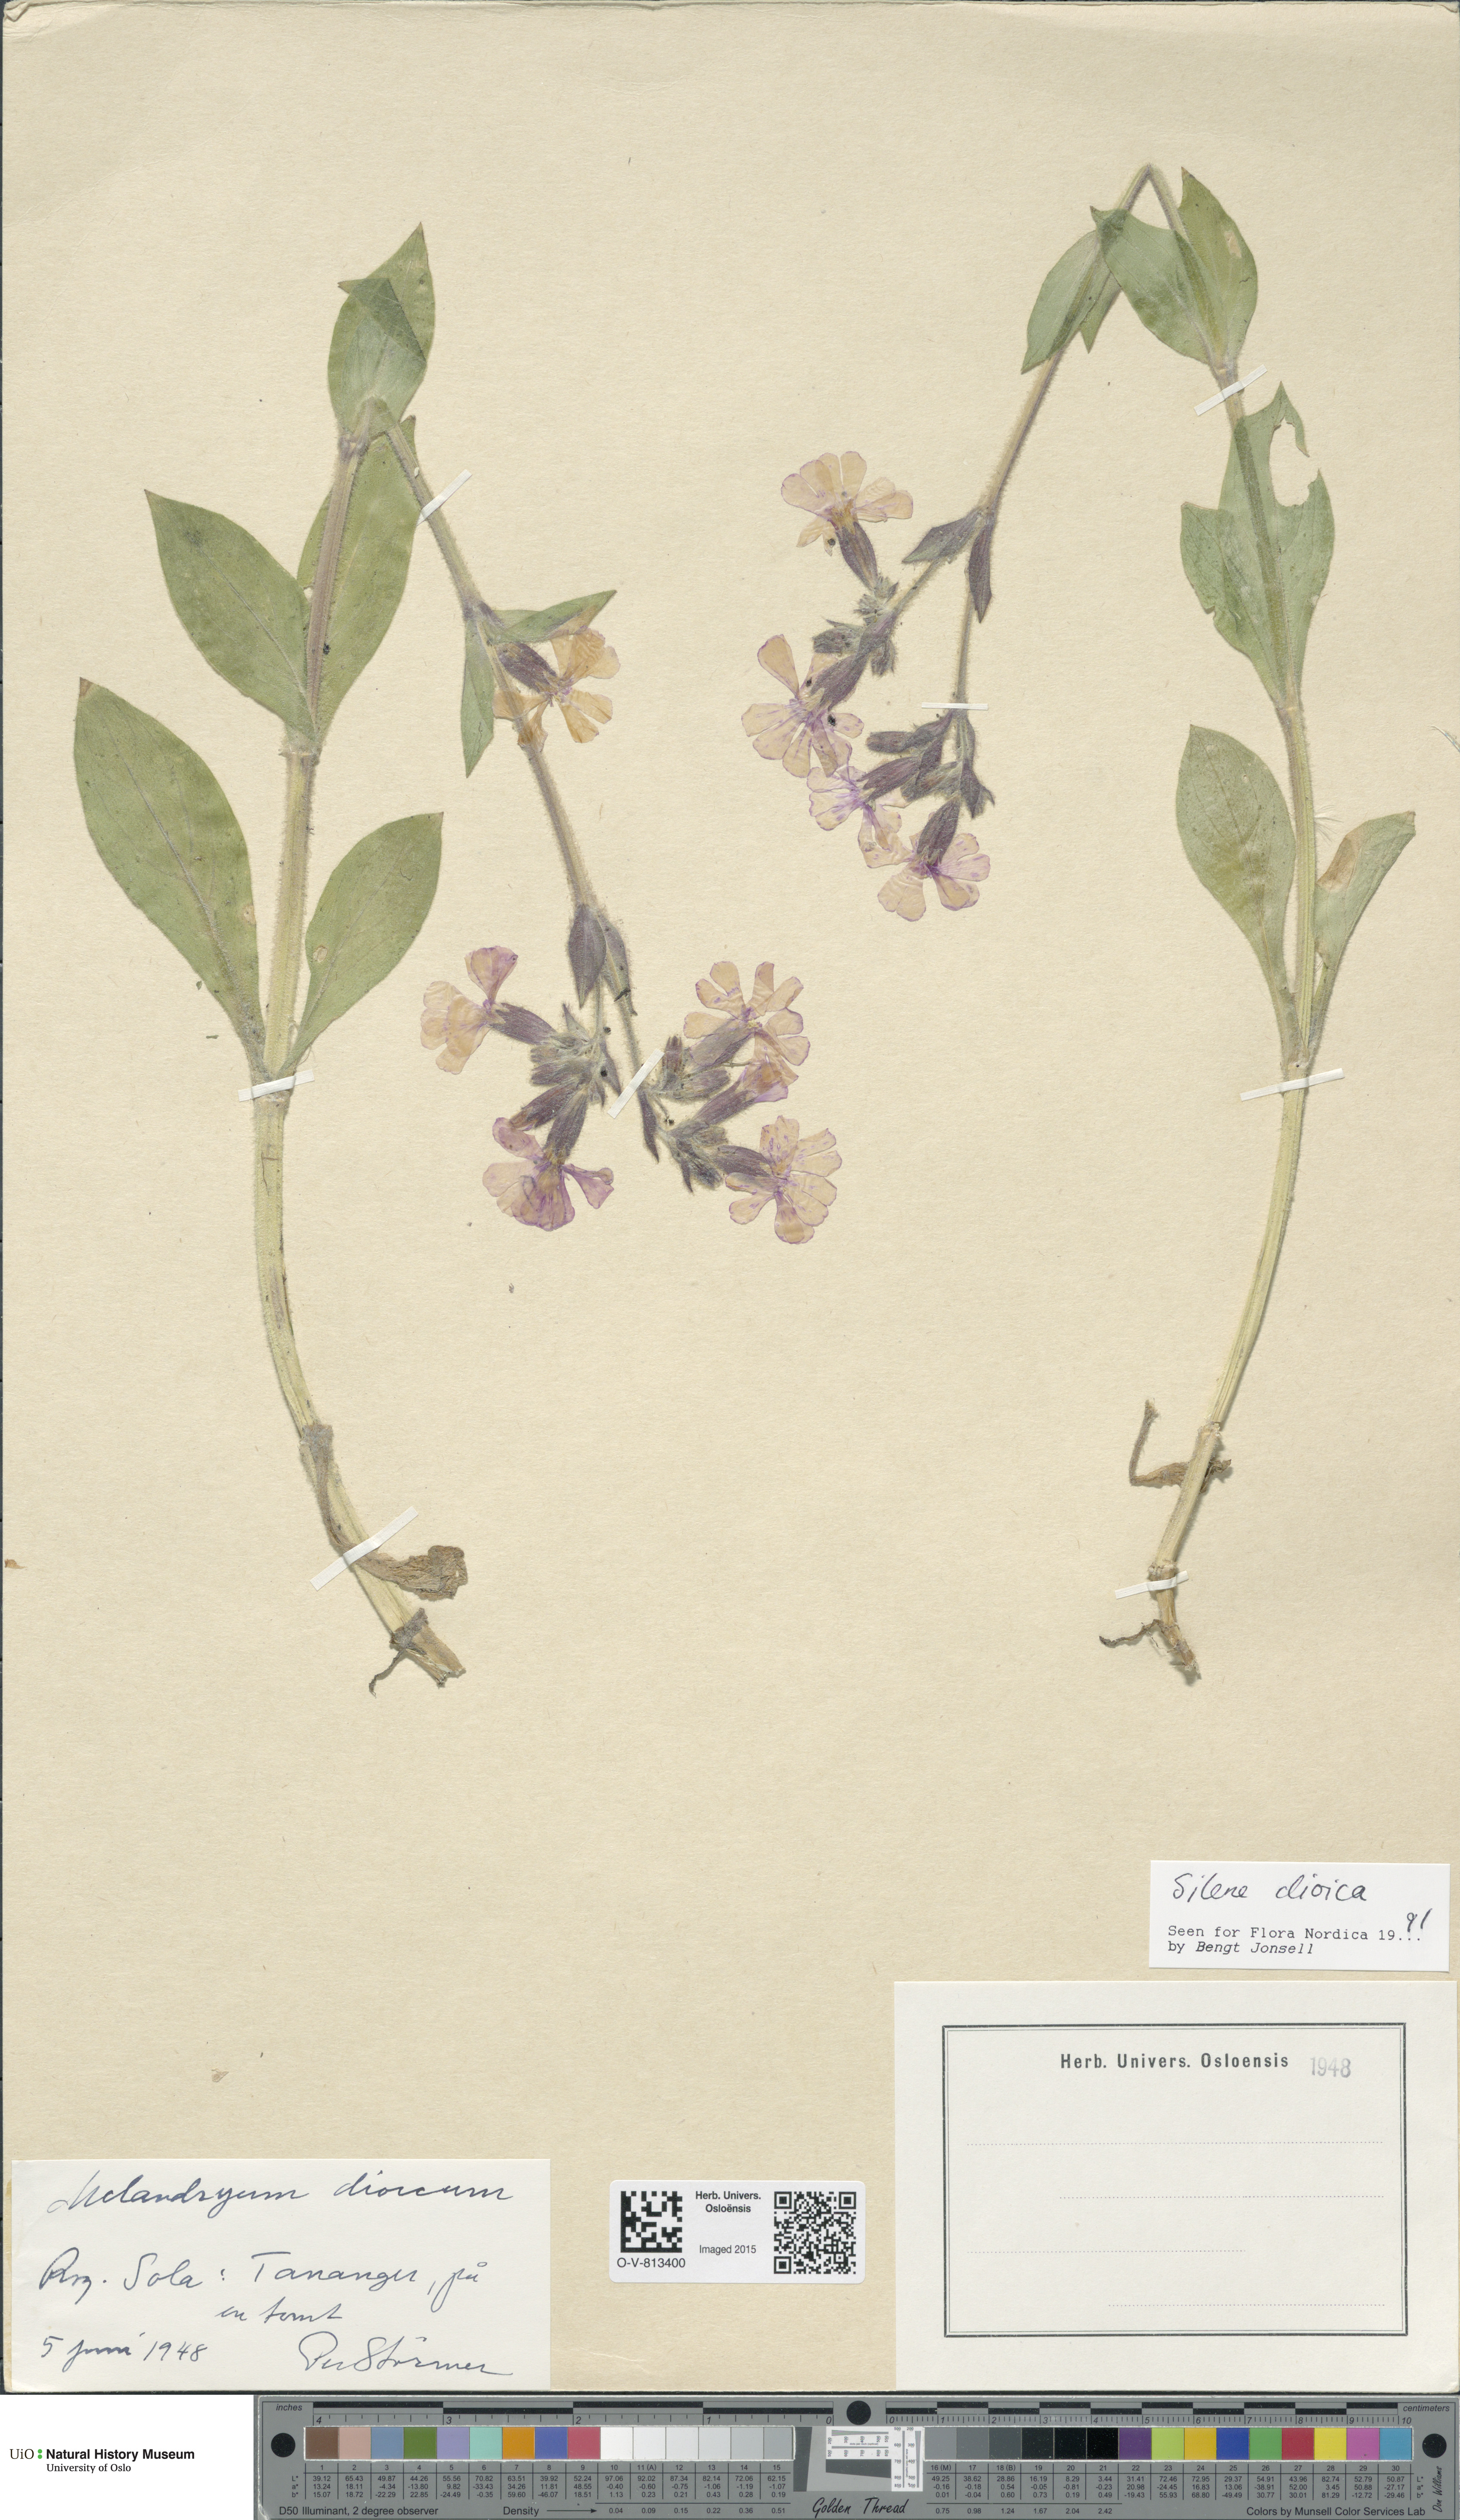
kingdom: Plantae
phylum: Tracheophyta
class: Magnoliopsida
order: Caryophyllales
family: Caryophyllaceae
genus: Silene
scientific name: Silene dioica
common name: Red campion
